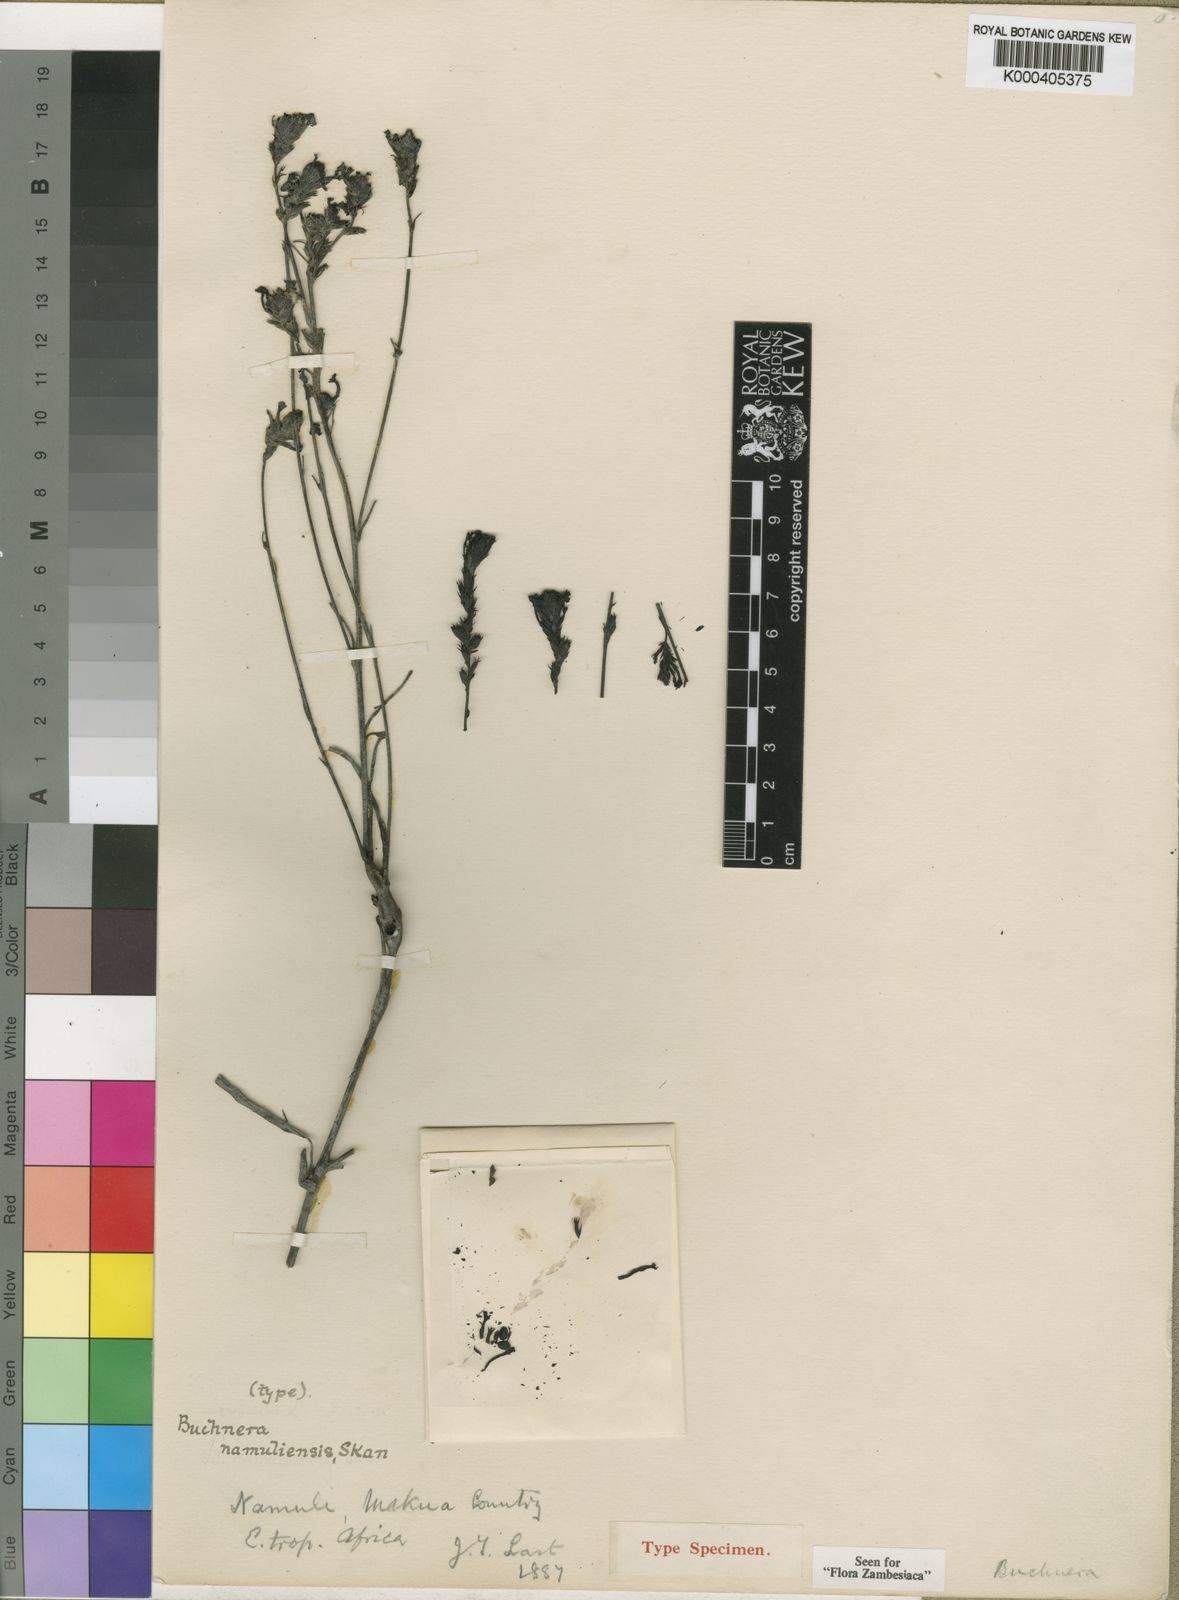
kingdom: Plantae
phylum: Tracheophyta
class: Magnoliopsida
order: Lamiales
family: Orobanchaceae
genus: Buchnera
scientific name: Buchnera namuliensis
